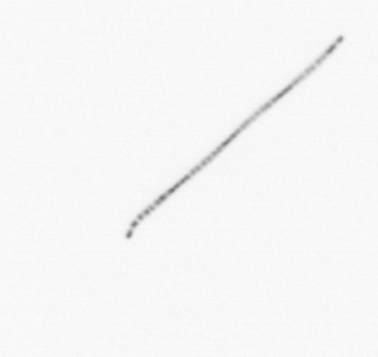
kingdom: Chromista
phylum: Ochrophyta
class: Bacillariophyceae
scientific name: Bacillariophyceae
